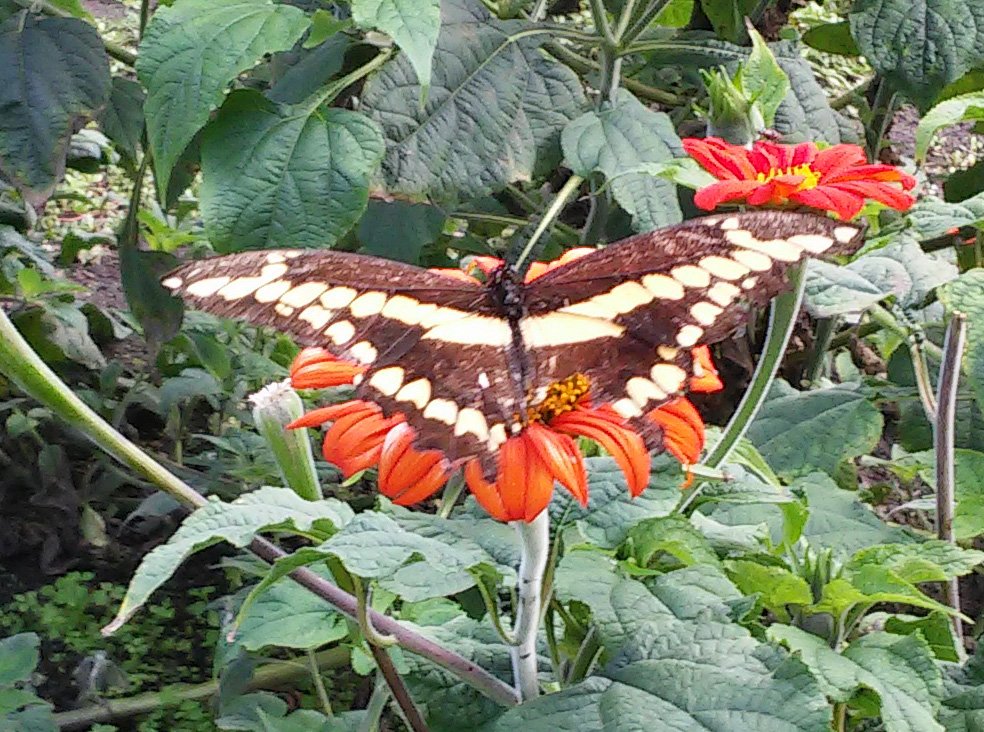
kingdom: Animalia
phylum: Arthropoda
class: Insecta
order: Lepidoptera
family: Papilionidae
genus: Papilio
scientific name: Papilio cresphontes
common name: Eastern Giant Swallowtail
